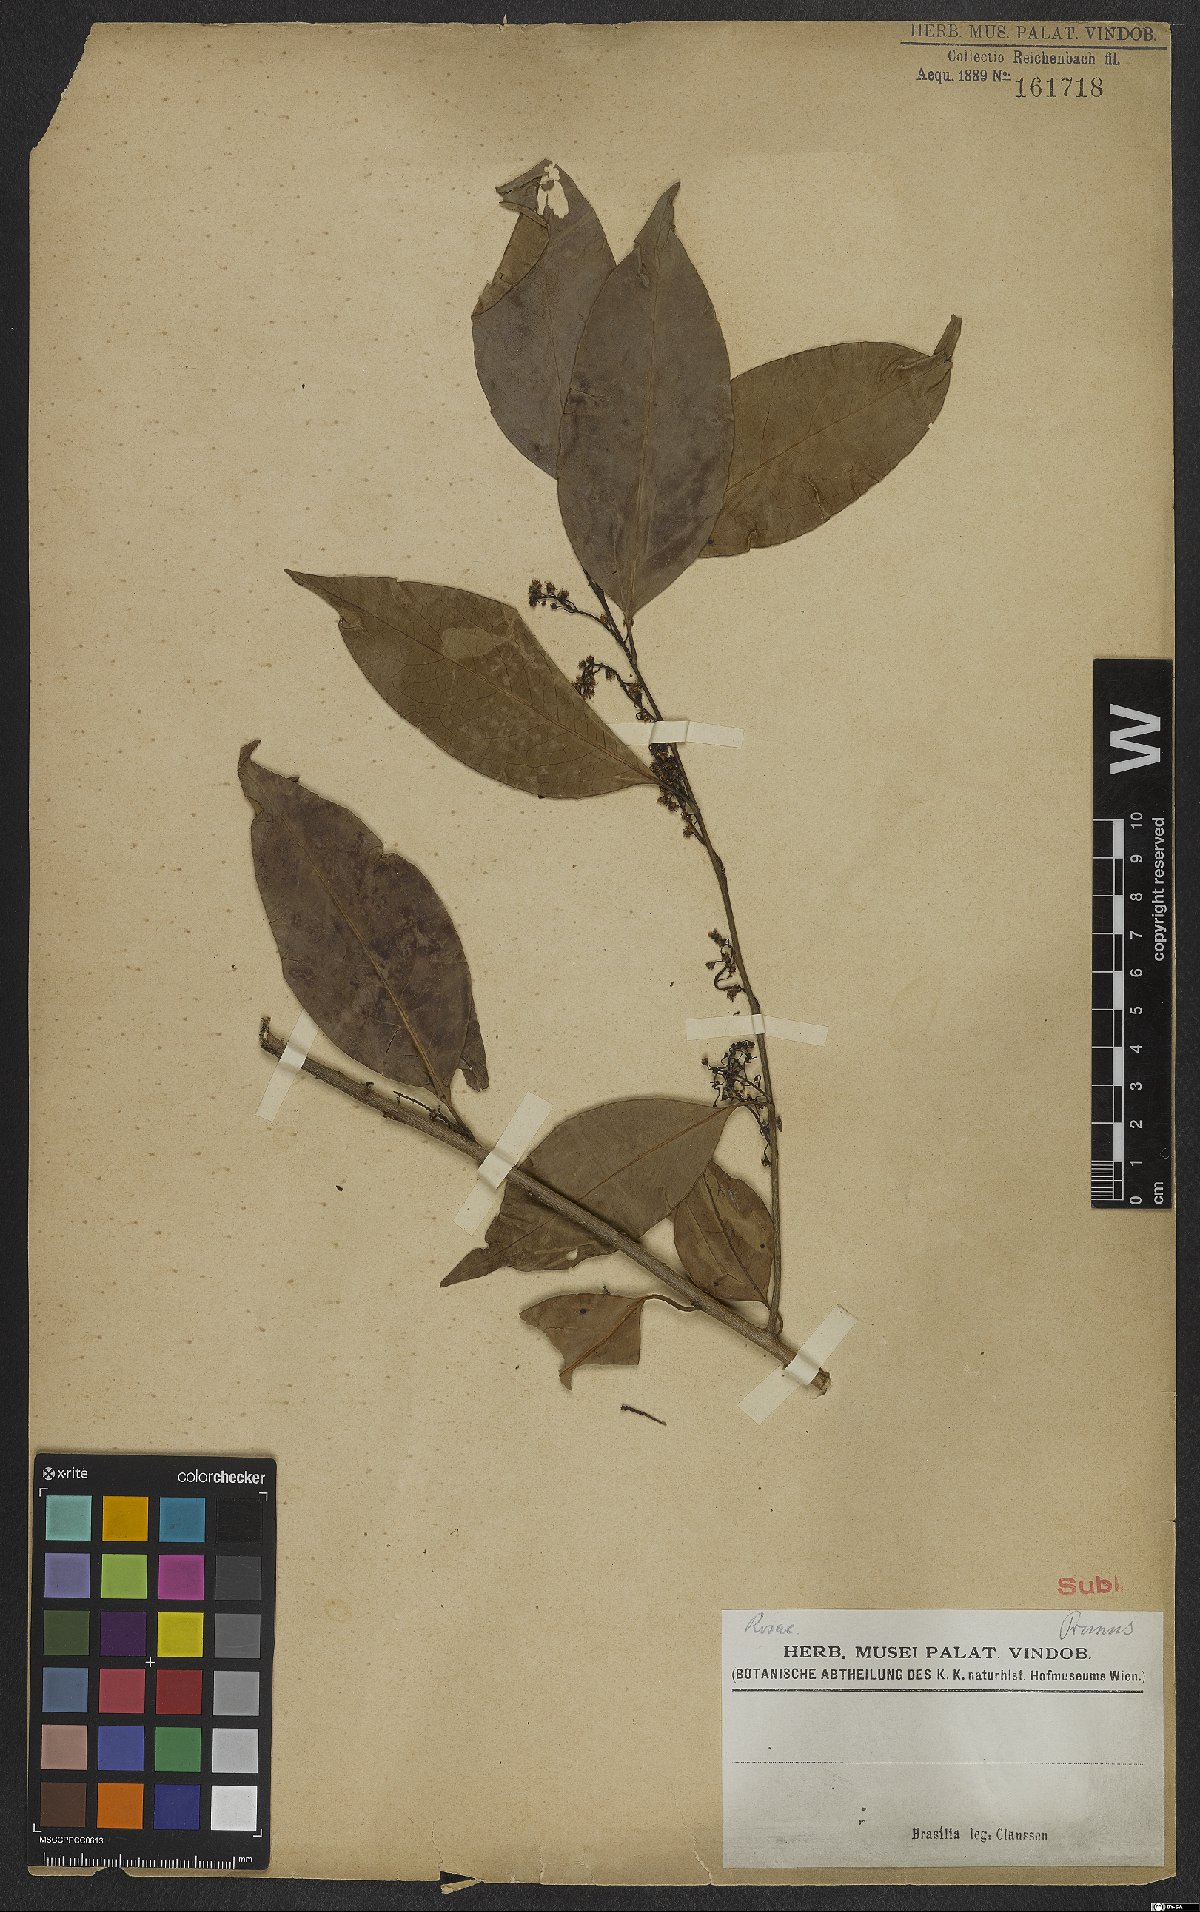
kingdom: Plantae
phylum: Tracheophyta
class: Magnoliopsida
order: Rosales
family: Rosaceae
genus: Prunus
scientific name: Prunus
